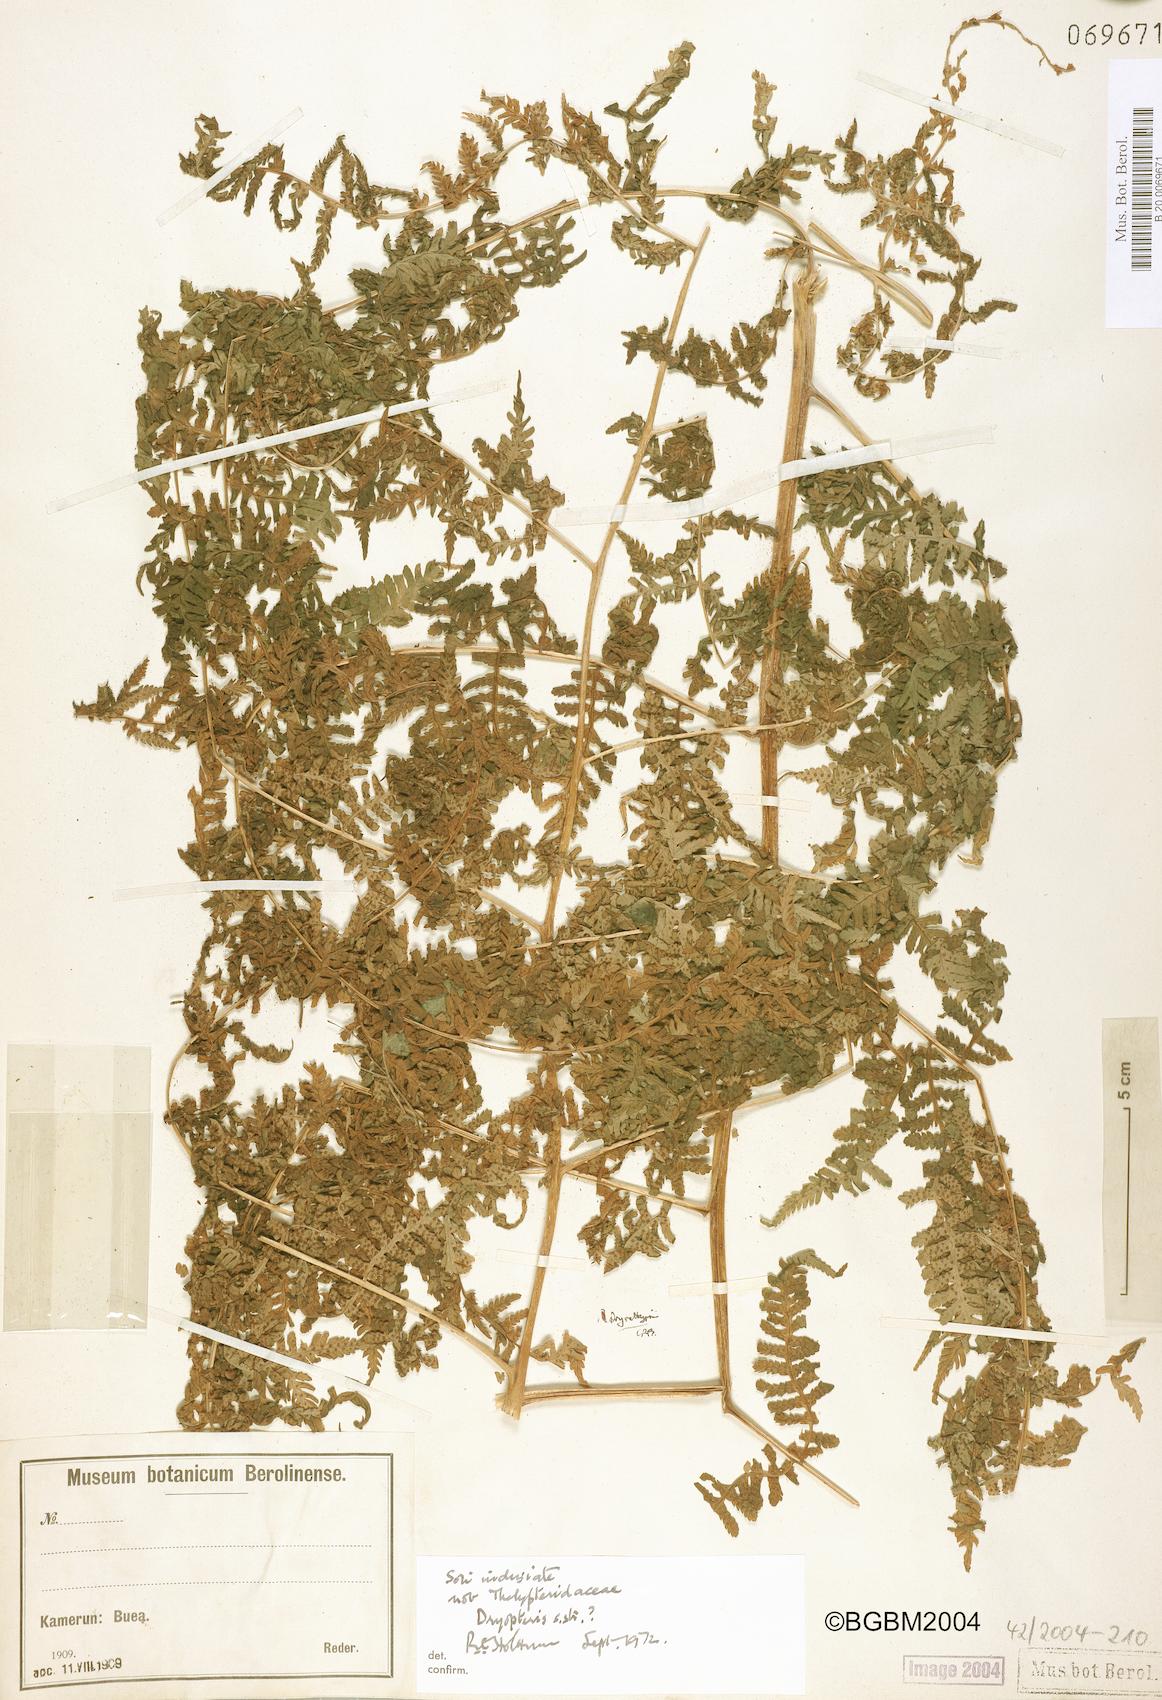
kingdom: Plantae
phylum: Tracheophyta
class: Polypodiopsida
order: Polypodiales
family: Athyriaceae
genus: Deparia
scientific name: Deparia
